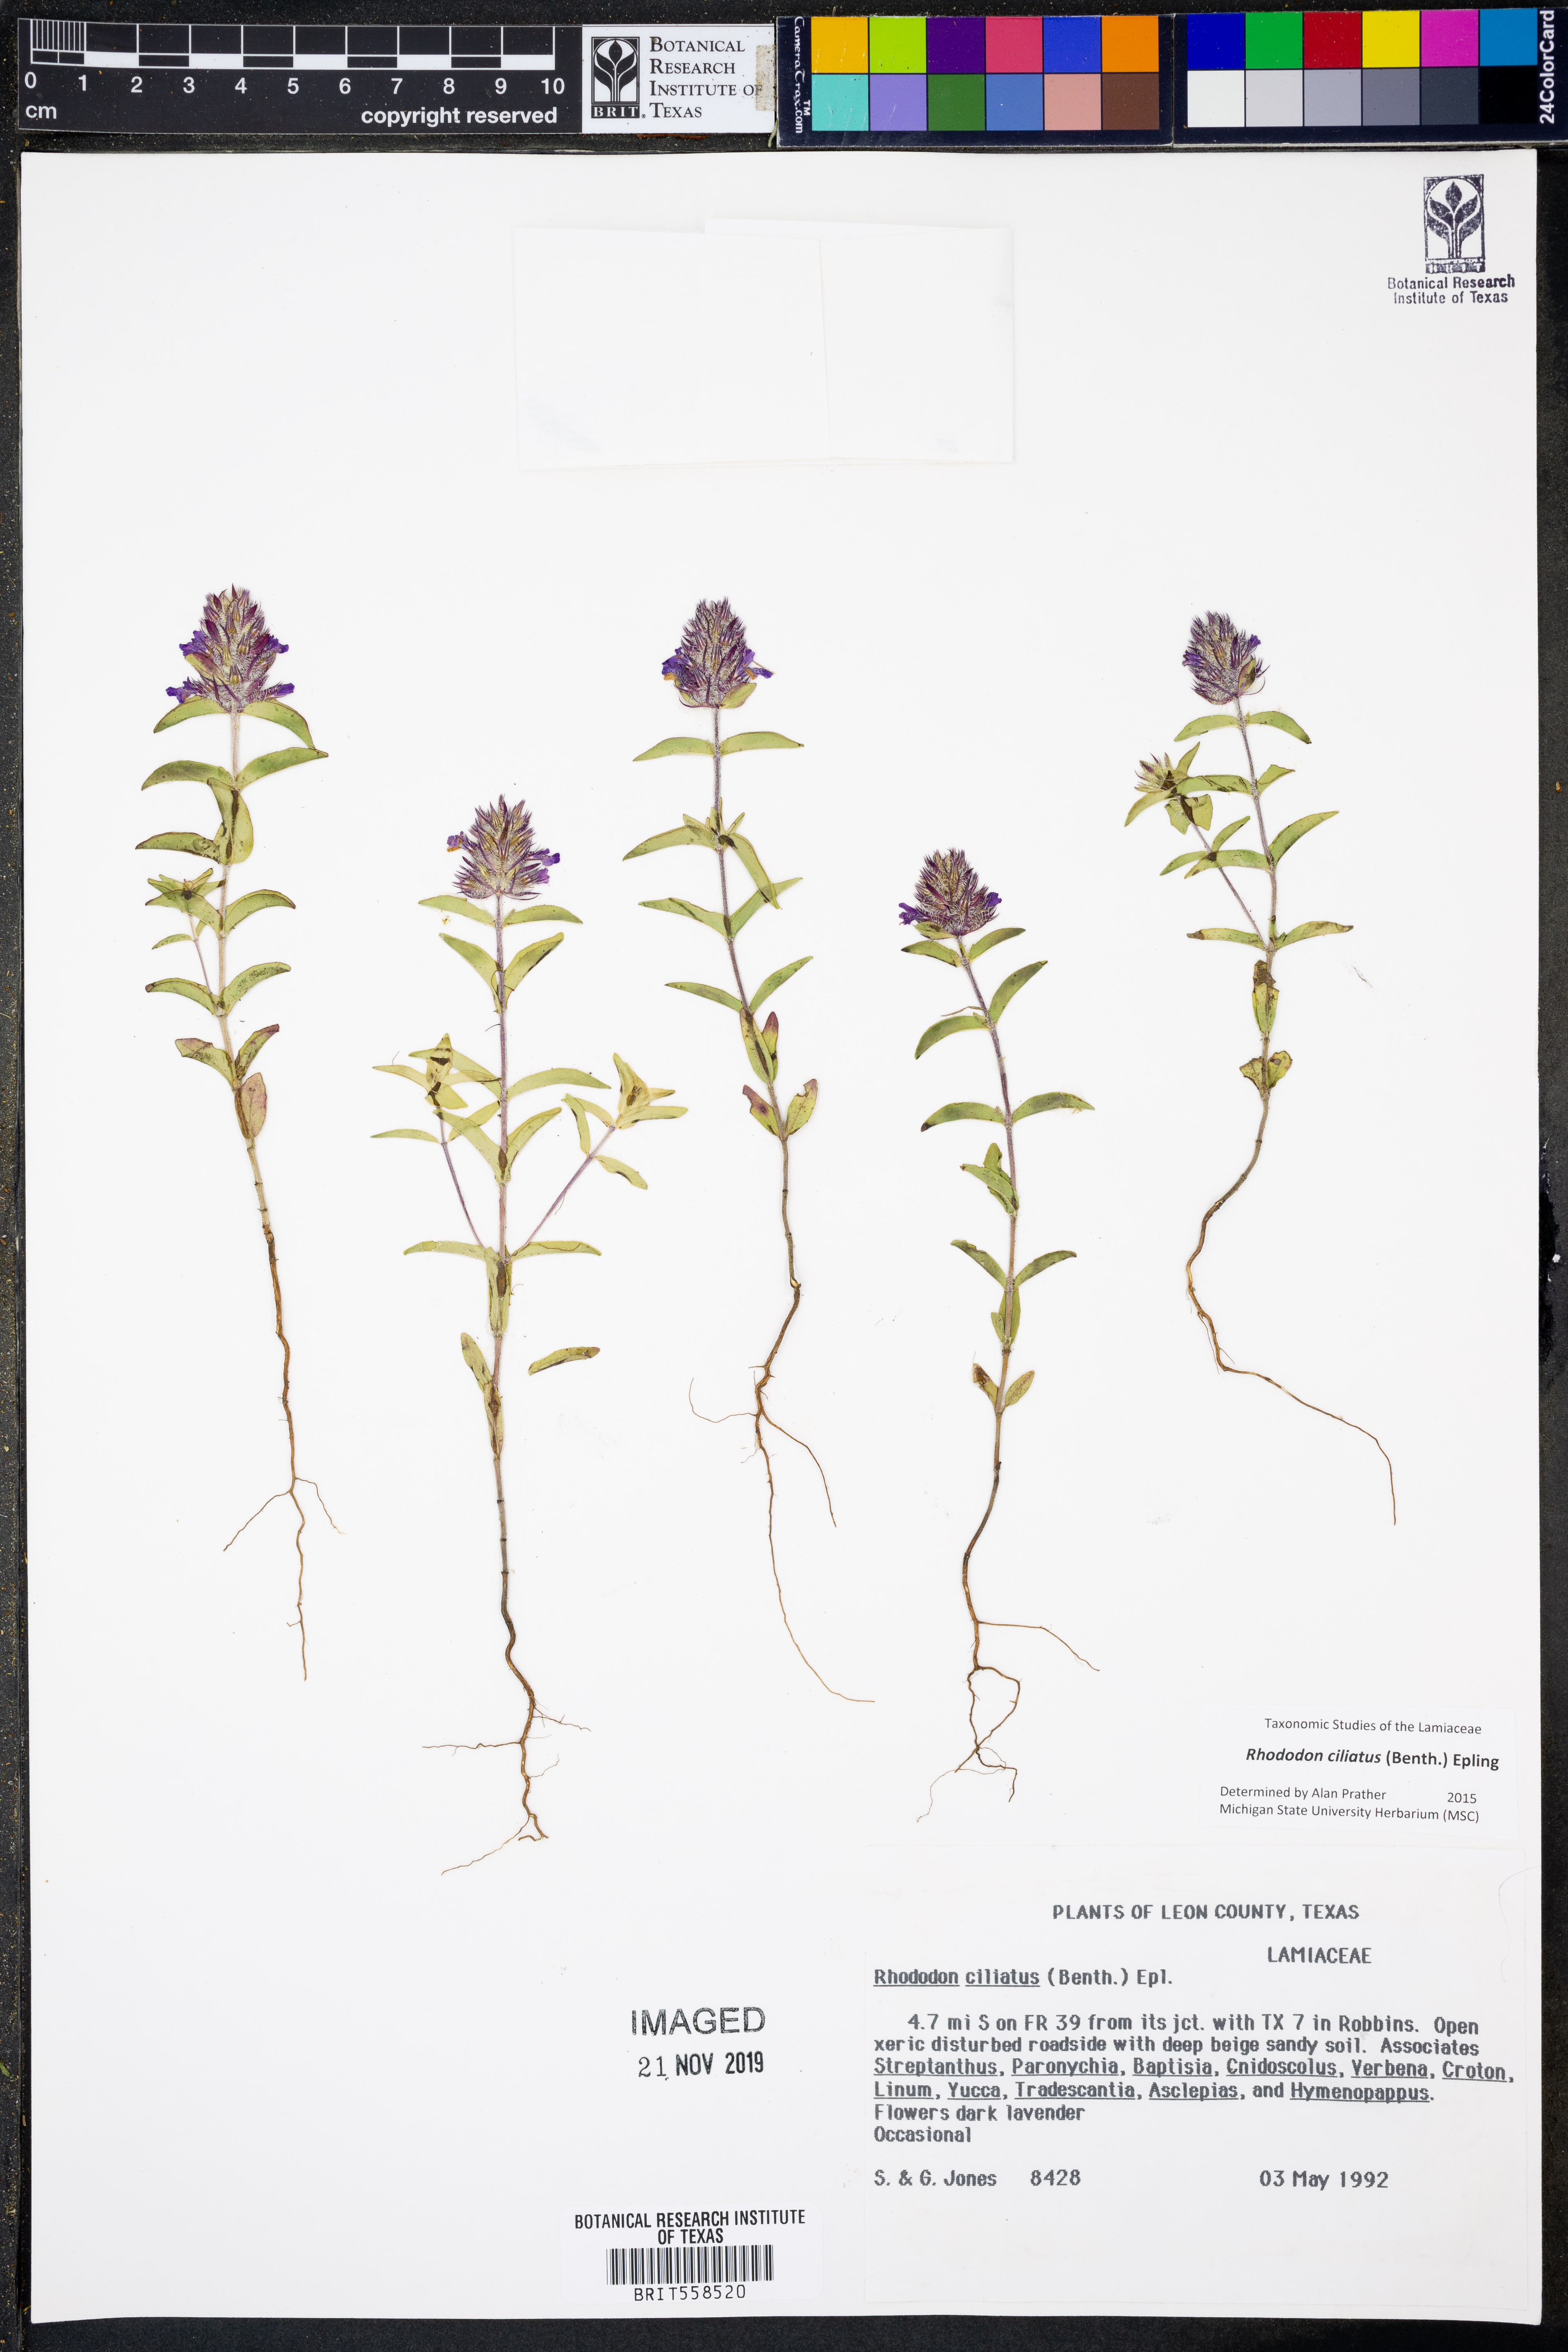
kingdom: Plantae
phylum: Tracheophyta
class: Magnoliopsida
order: Lamiales
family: Lamiaceae
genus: Rhododon
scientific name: Rhododon ciliatus
